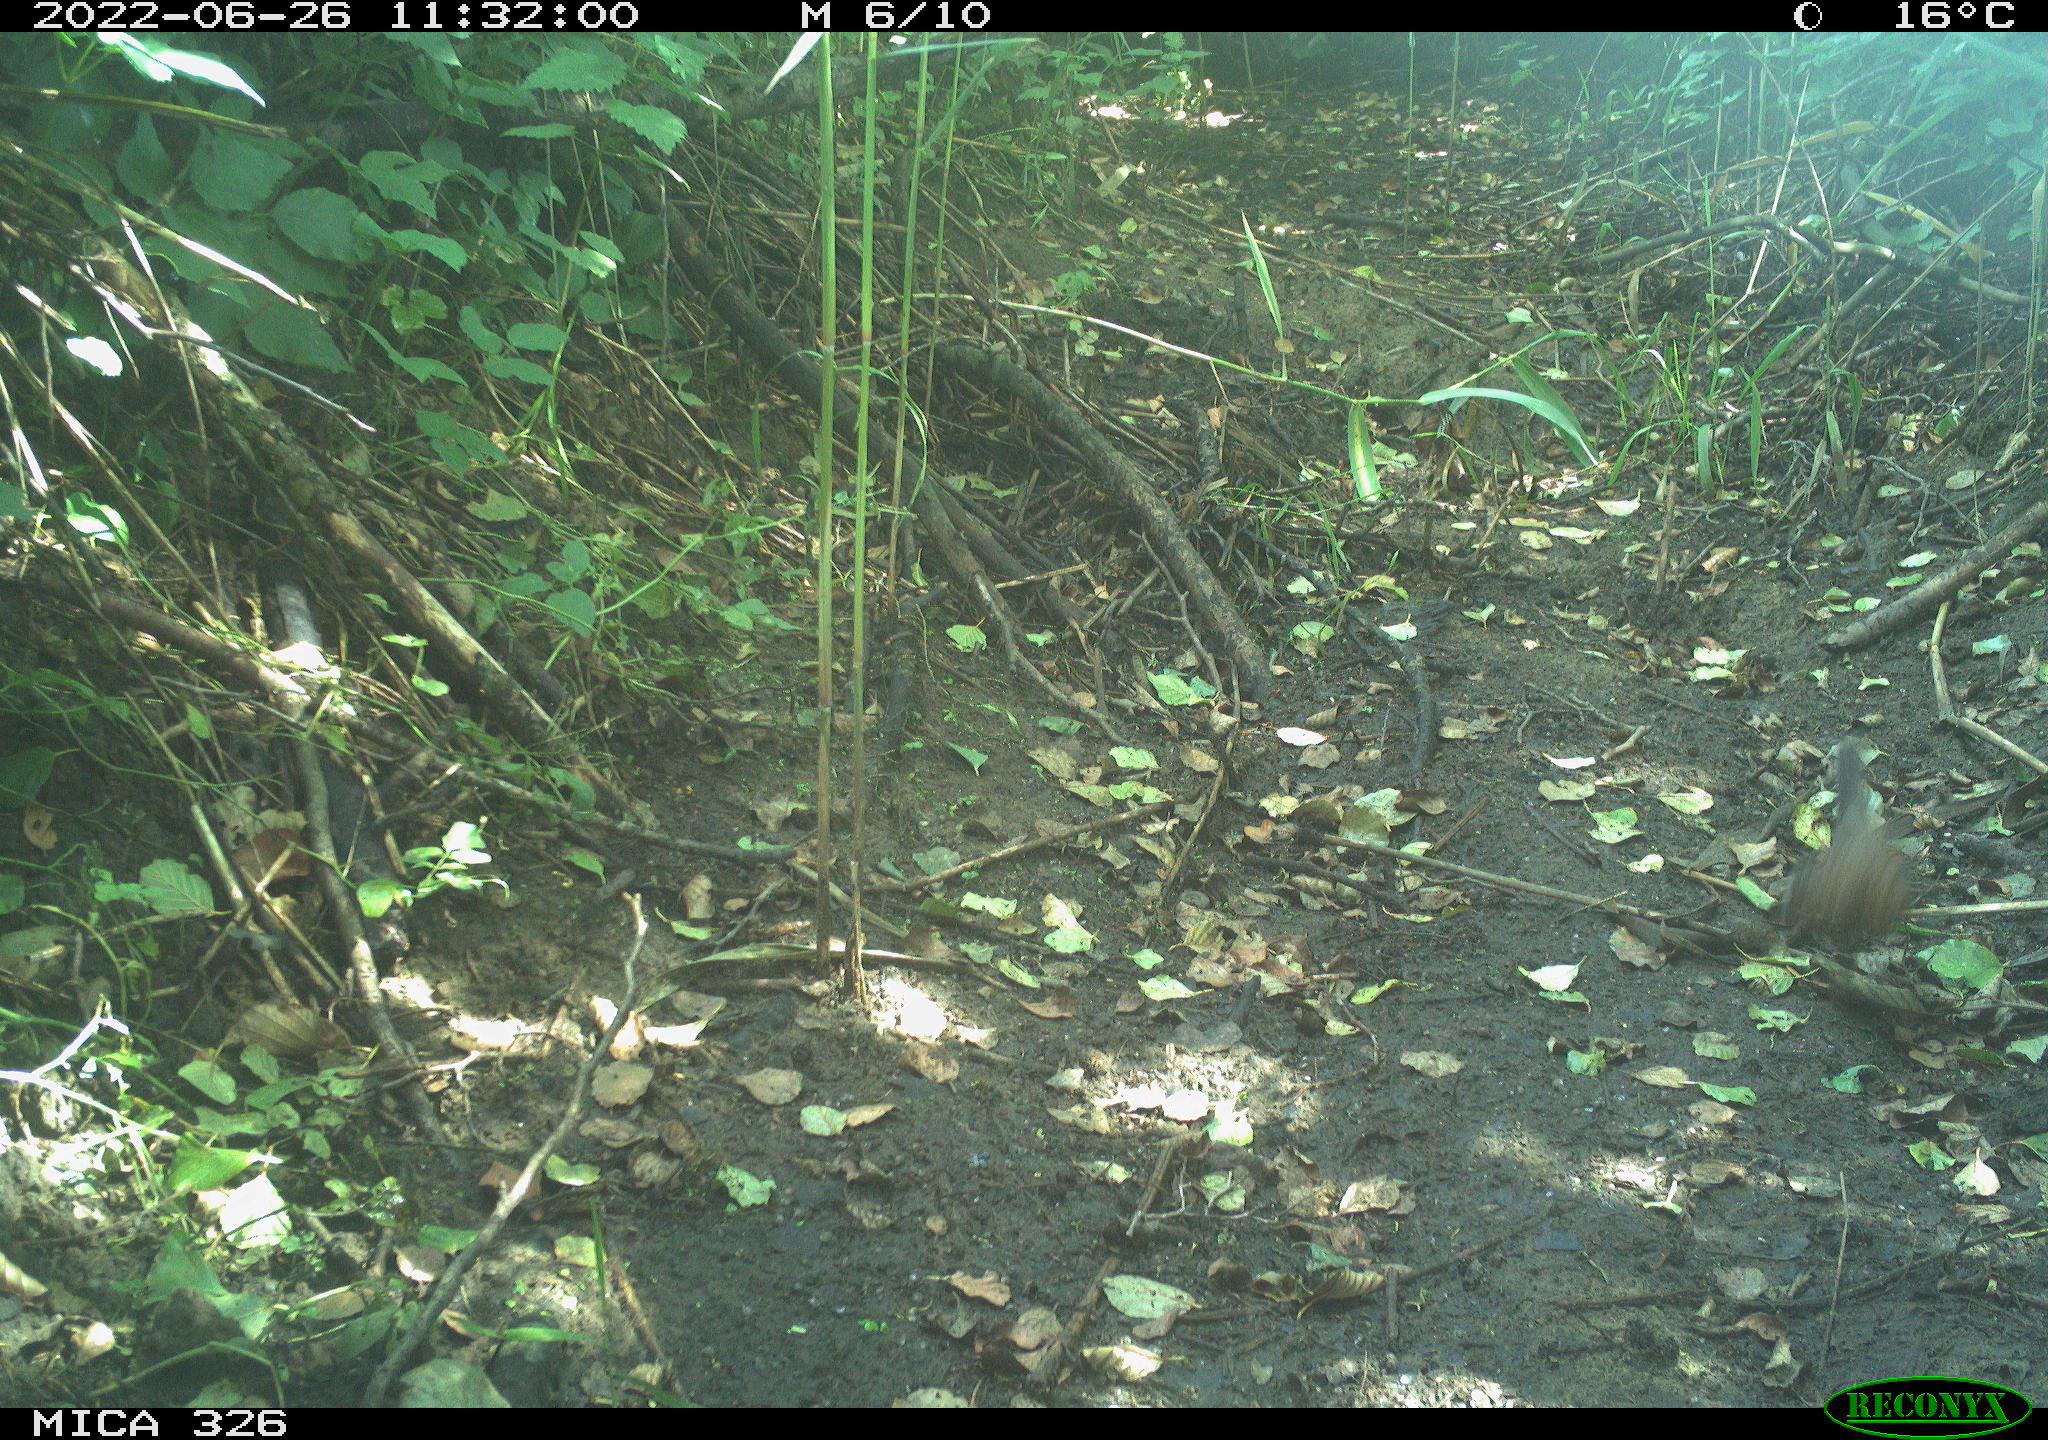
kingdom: Animalia
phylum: Chordata
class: Aves
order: Passeriformes
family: Turdidae
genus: Turdus
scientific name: Turdus
